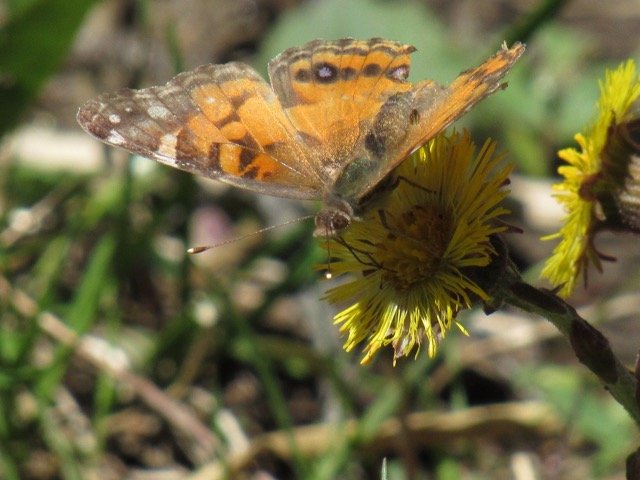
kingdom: Animalia
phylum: Arthropoda
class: Insecta
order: Lepidoptera
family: Nymphalidae
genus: Vanessa
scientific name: Vanessa virginiensis
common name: American Lady
